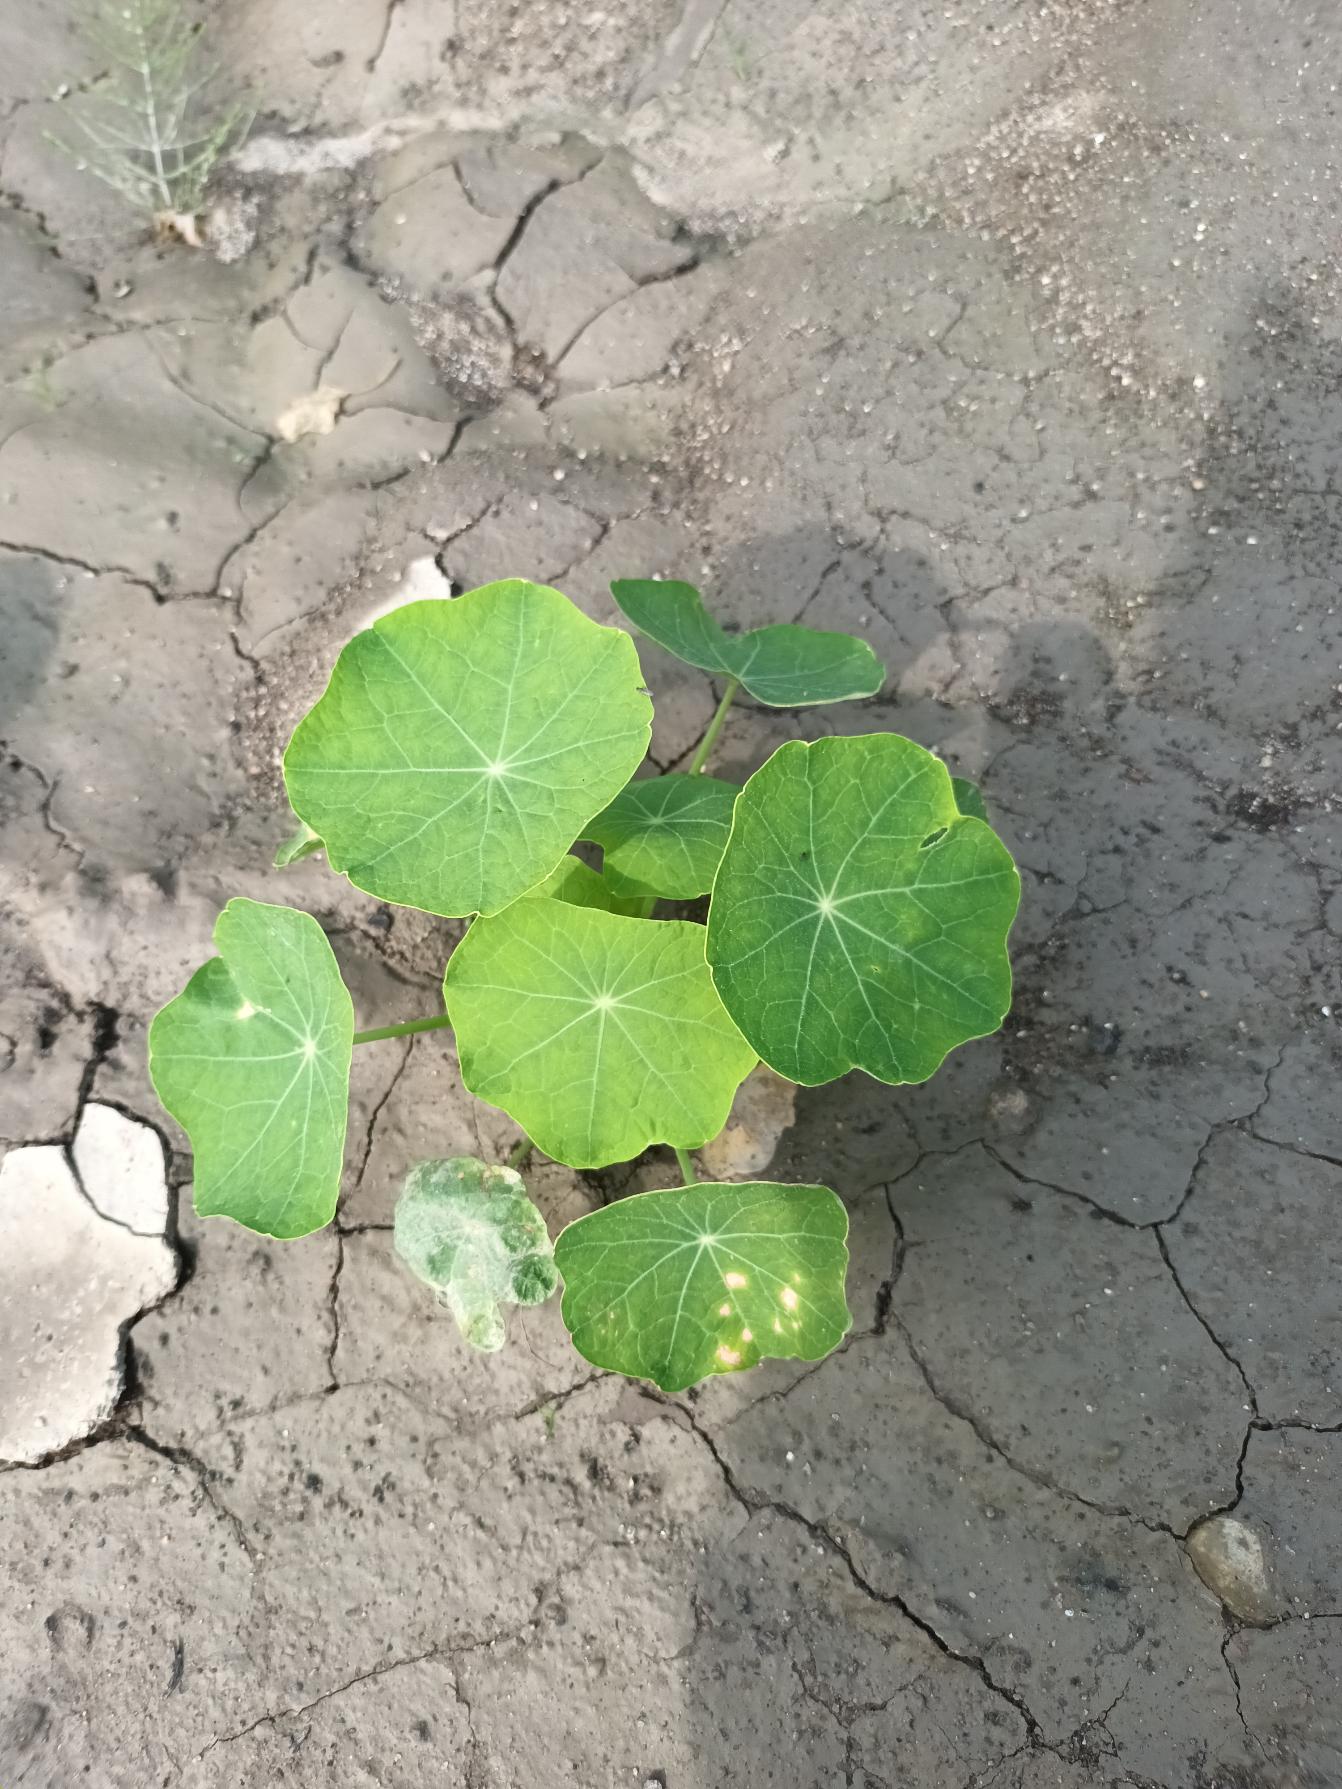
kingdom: Plantae
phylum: Tracheophyta
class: Magnoliopsida
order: Brassicales
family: Tropaeolaceae
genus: Tropaeolum
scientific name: Tropaeolum majus
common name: Blomsterkarse
